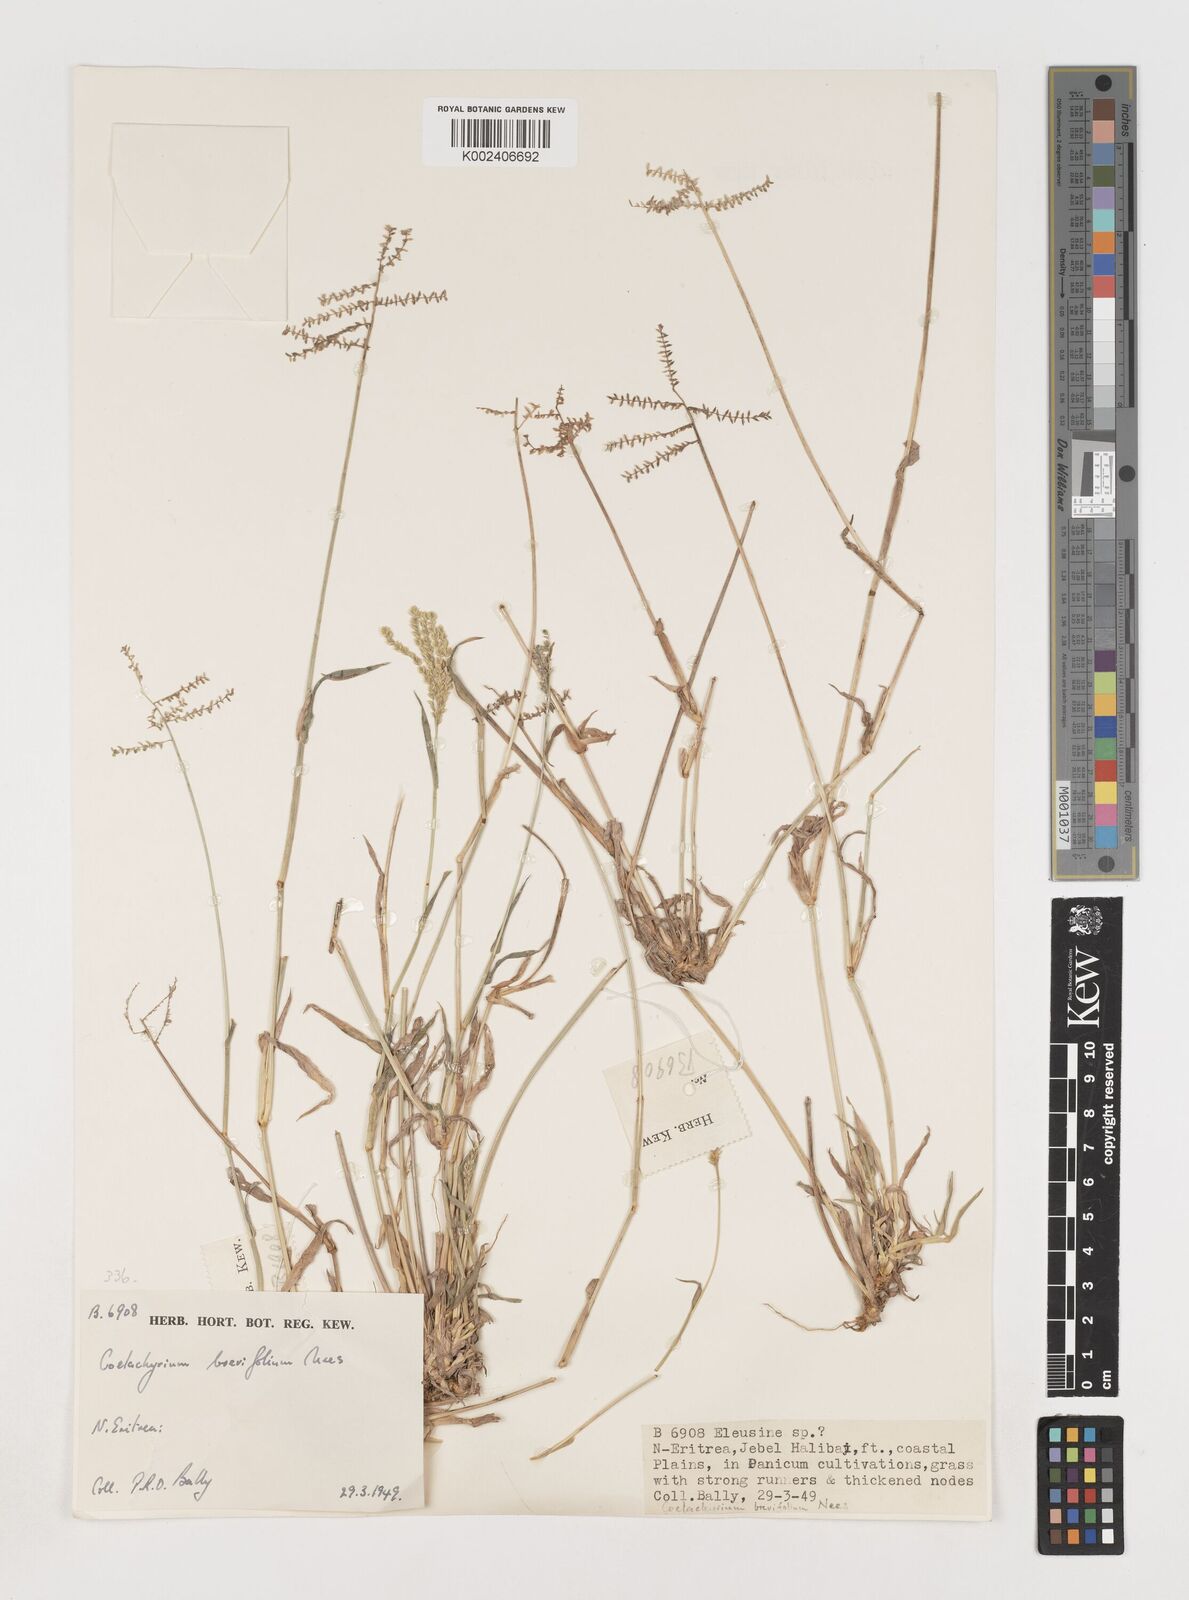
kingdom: Plantae
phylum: Tracheophyta
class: Liliopsida
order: Poales
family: Poaceae
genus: Coelachyrum
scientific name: Coelachyrum brevifolium
